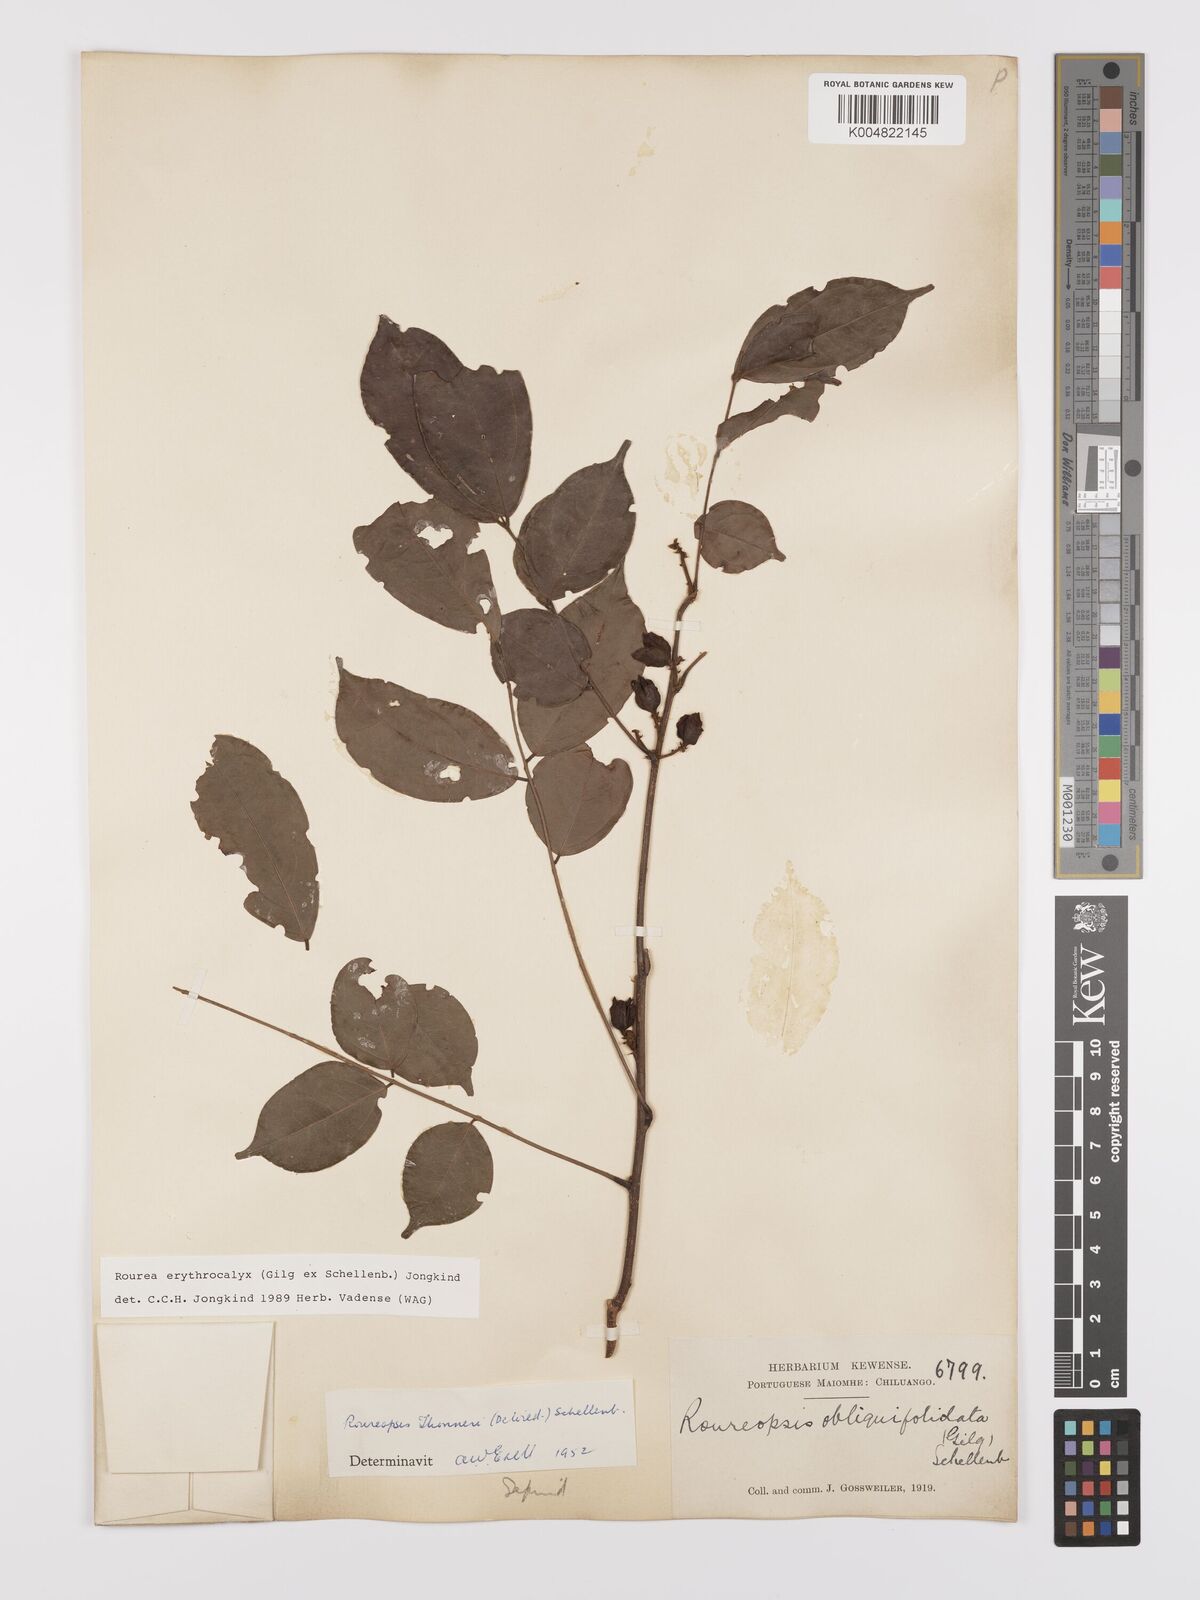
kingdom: Plantae
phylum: Tracheophyta
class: Magnoliopsida
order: Oxalidales
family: Connaraceae
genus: Rourea
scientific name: Rourea erythrocalyx
